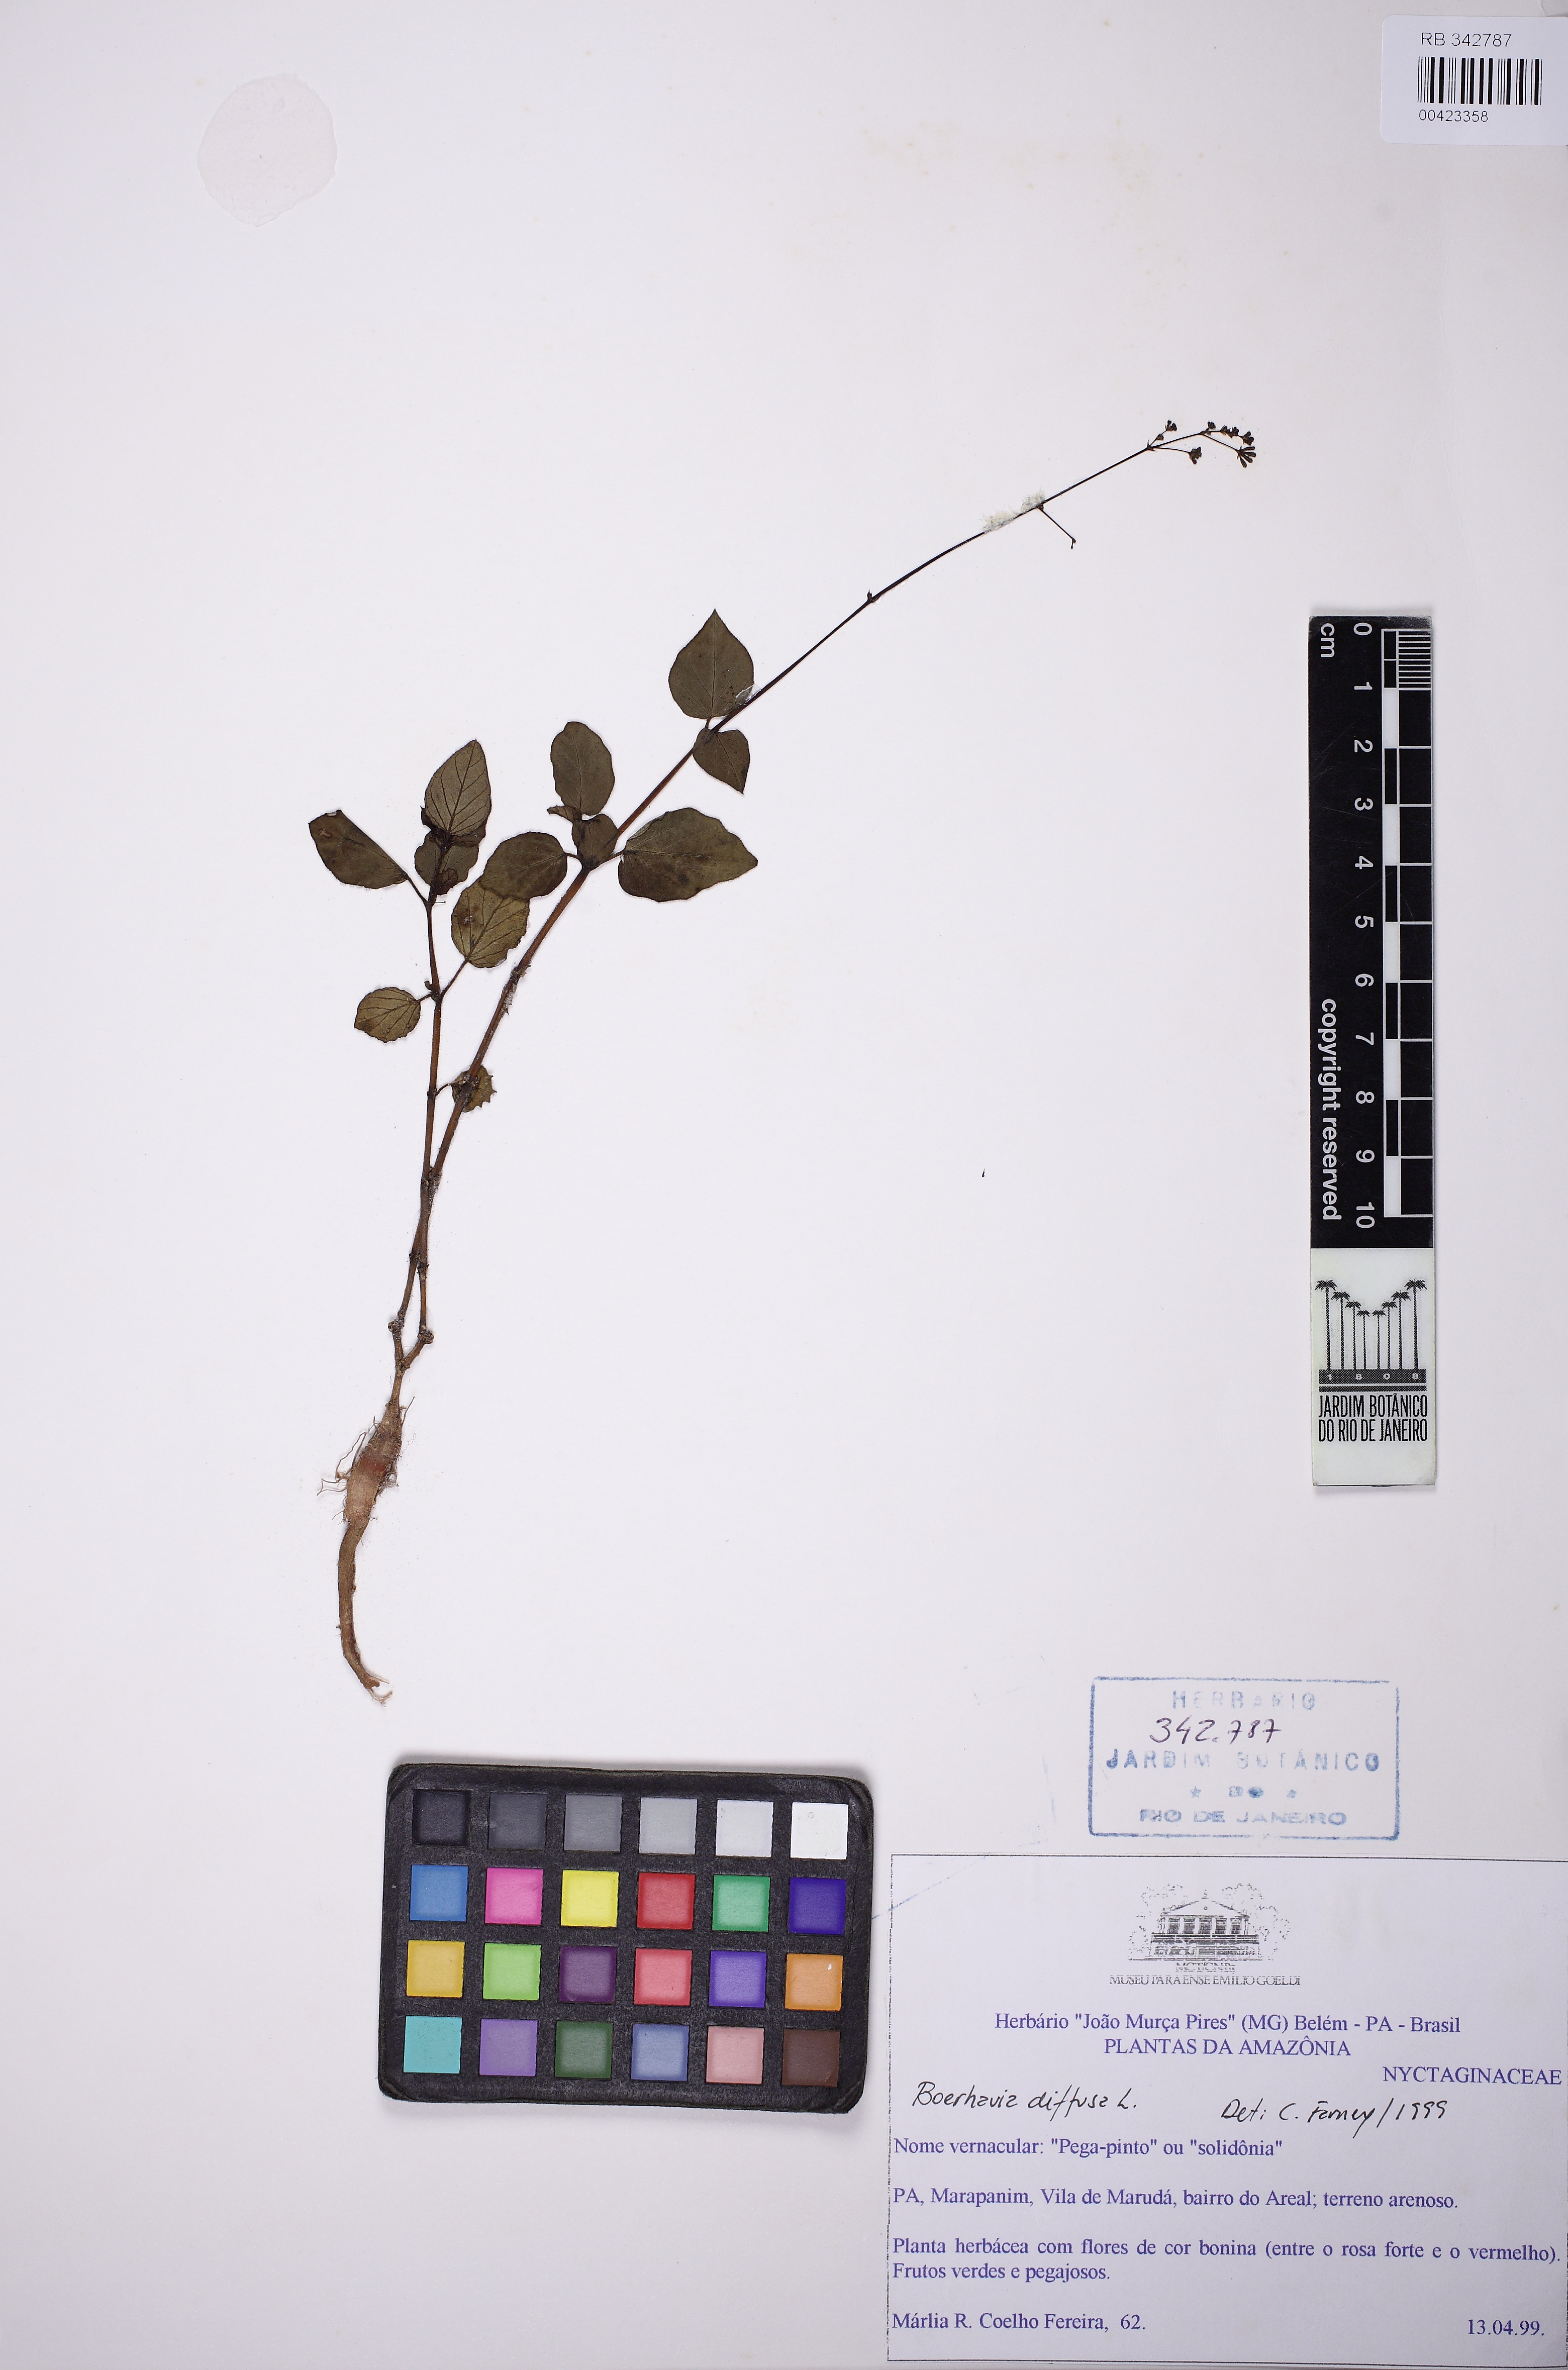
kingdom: Plantae
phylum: Tracheophyta
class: Magnoliopsida
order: Caryophyllales
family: Nyctaginaceae
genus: Boerhavia
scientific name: Boerhavia diffusa
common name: Red spiderling
